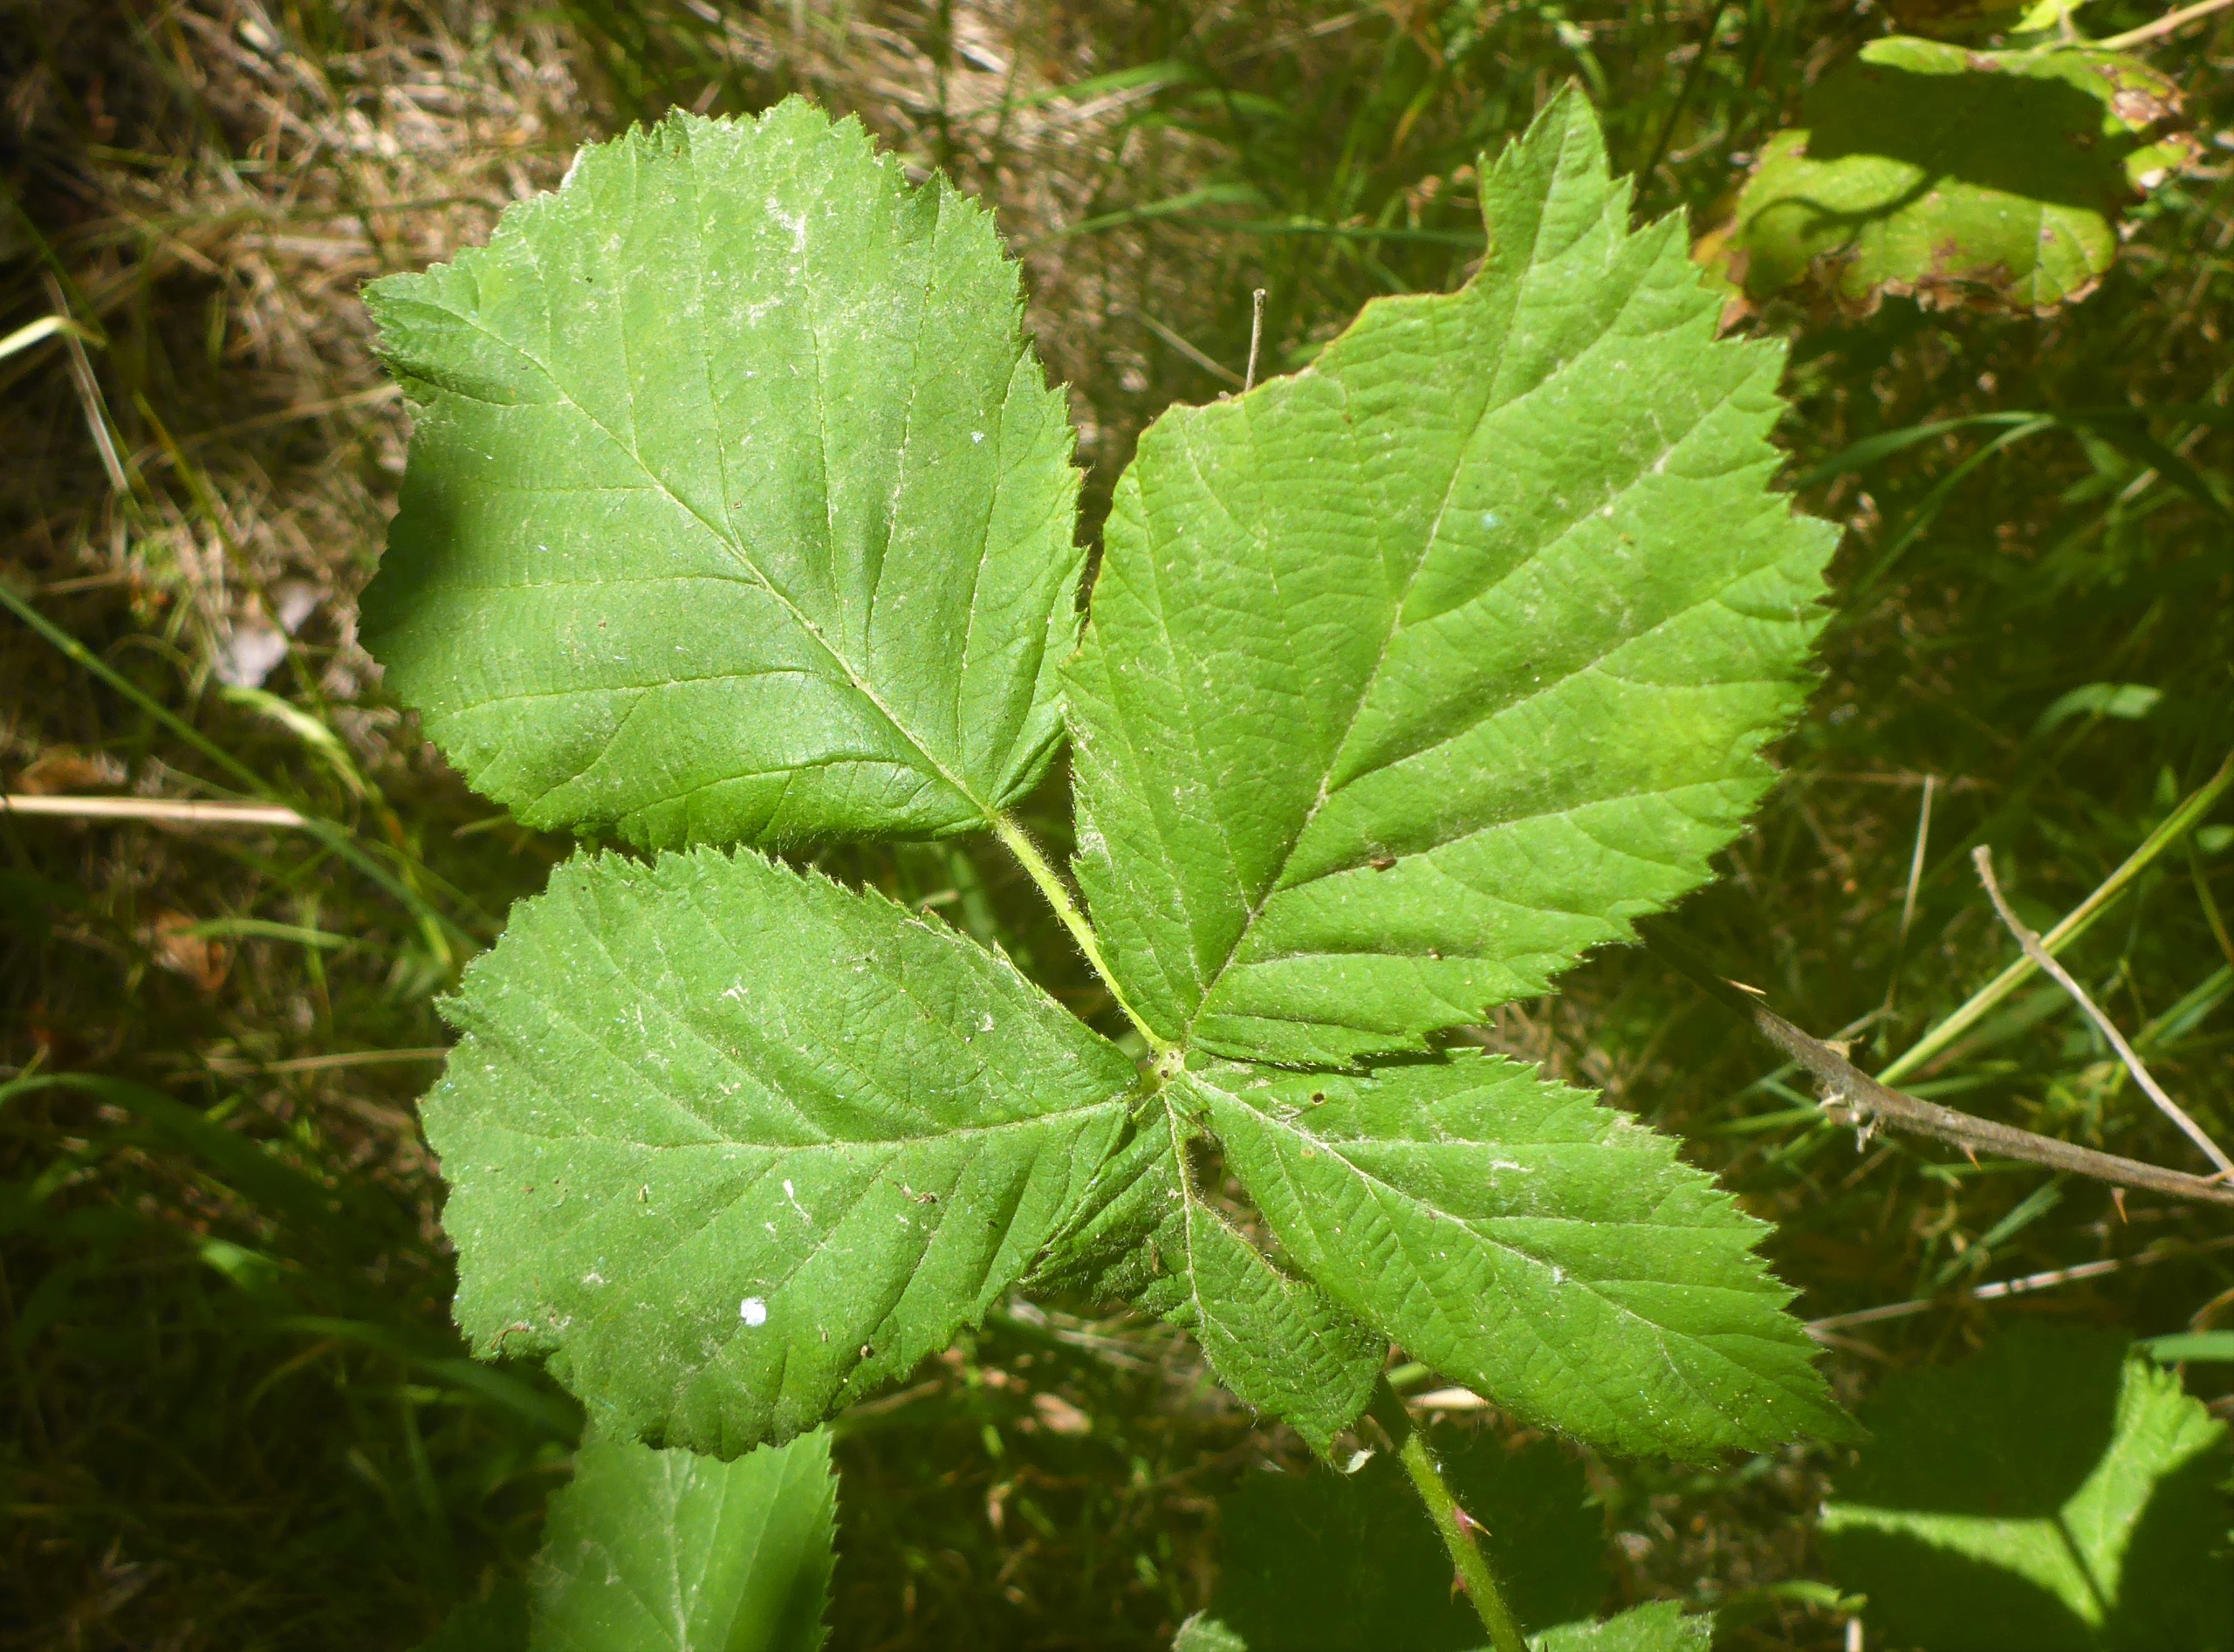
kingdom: Plantae
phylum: Tracheophyta
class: Magnoliopsida
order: Rosales
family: Rosaceae
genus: Rubus
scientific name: Rubus armeniacus
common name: Armensk brombær
